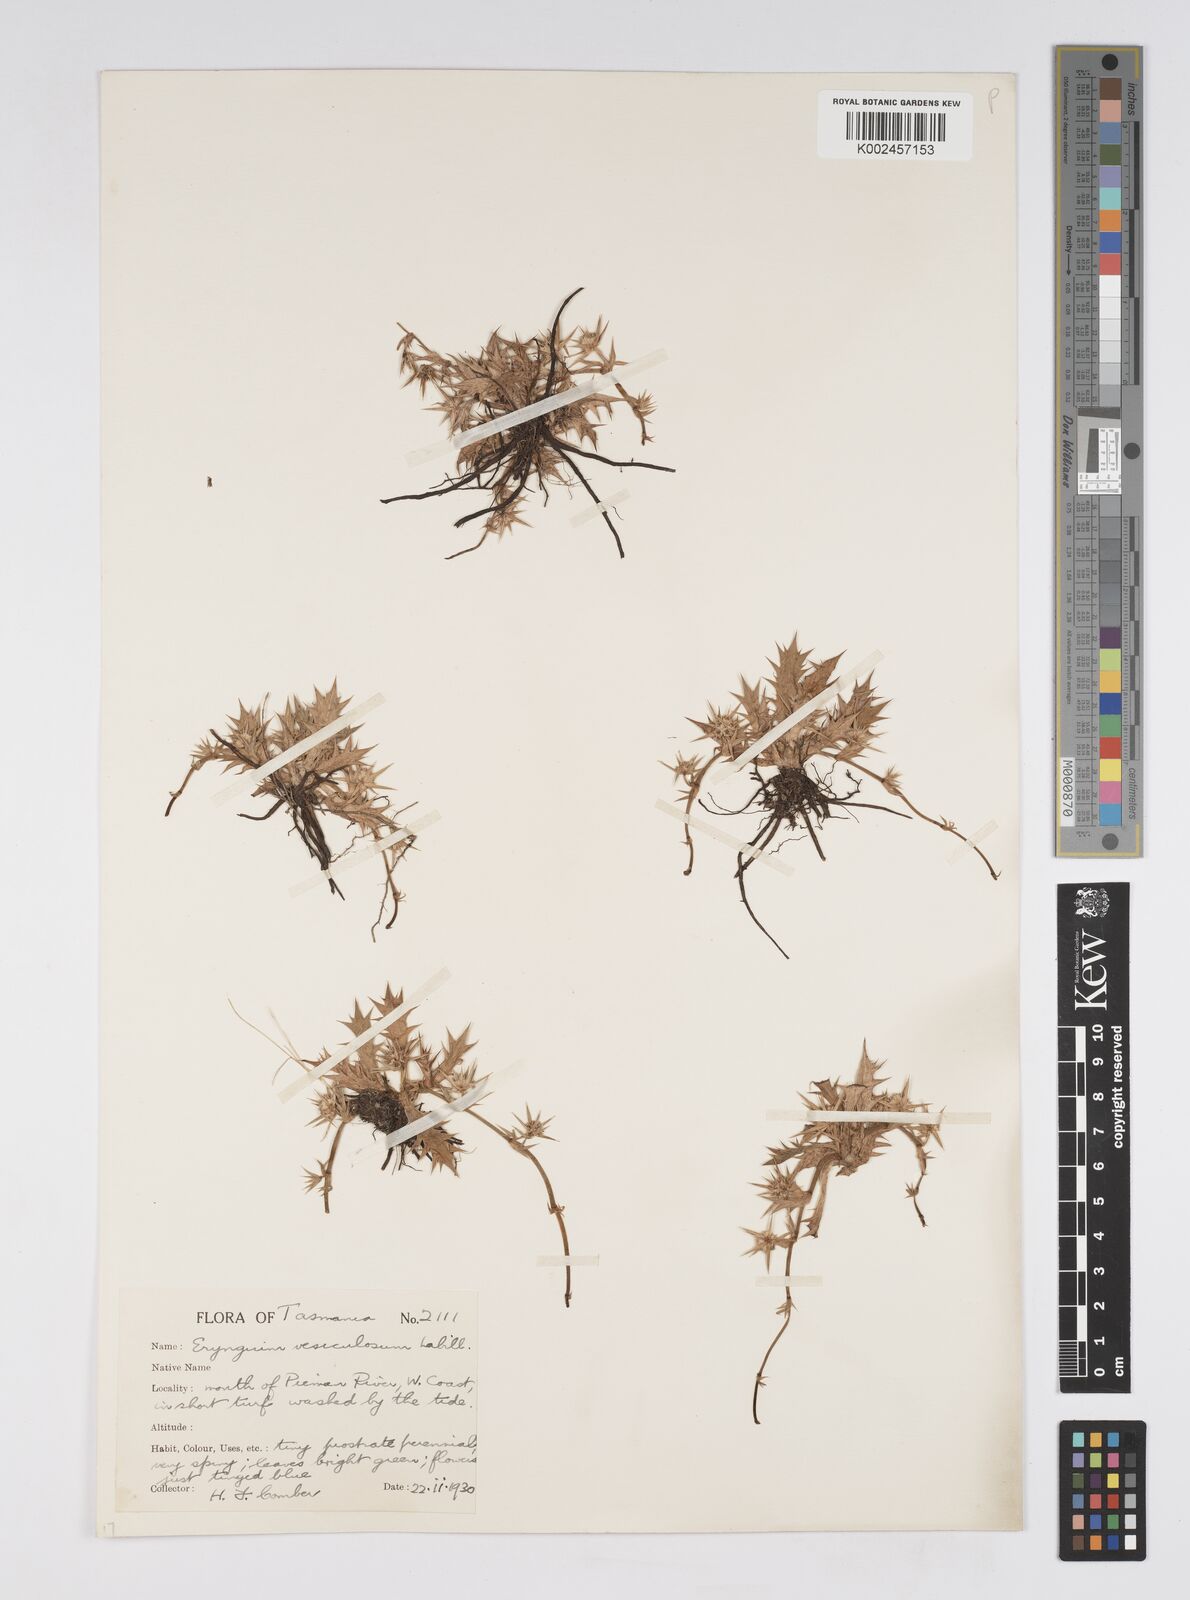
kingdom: Plantae
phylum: Tracheophyta
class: Magnoliopsida
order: Apiales
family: Apiaceae
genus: Eryngium
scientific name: Eryngium vesiculosum
